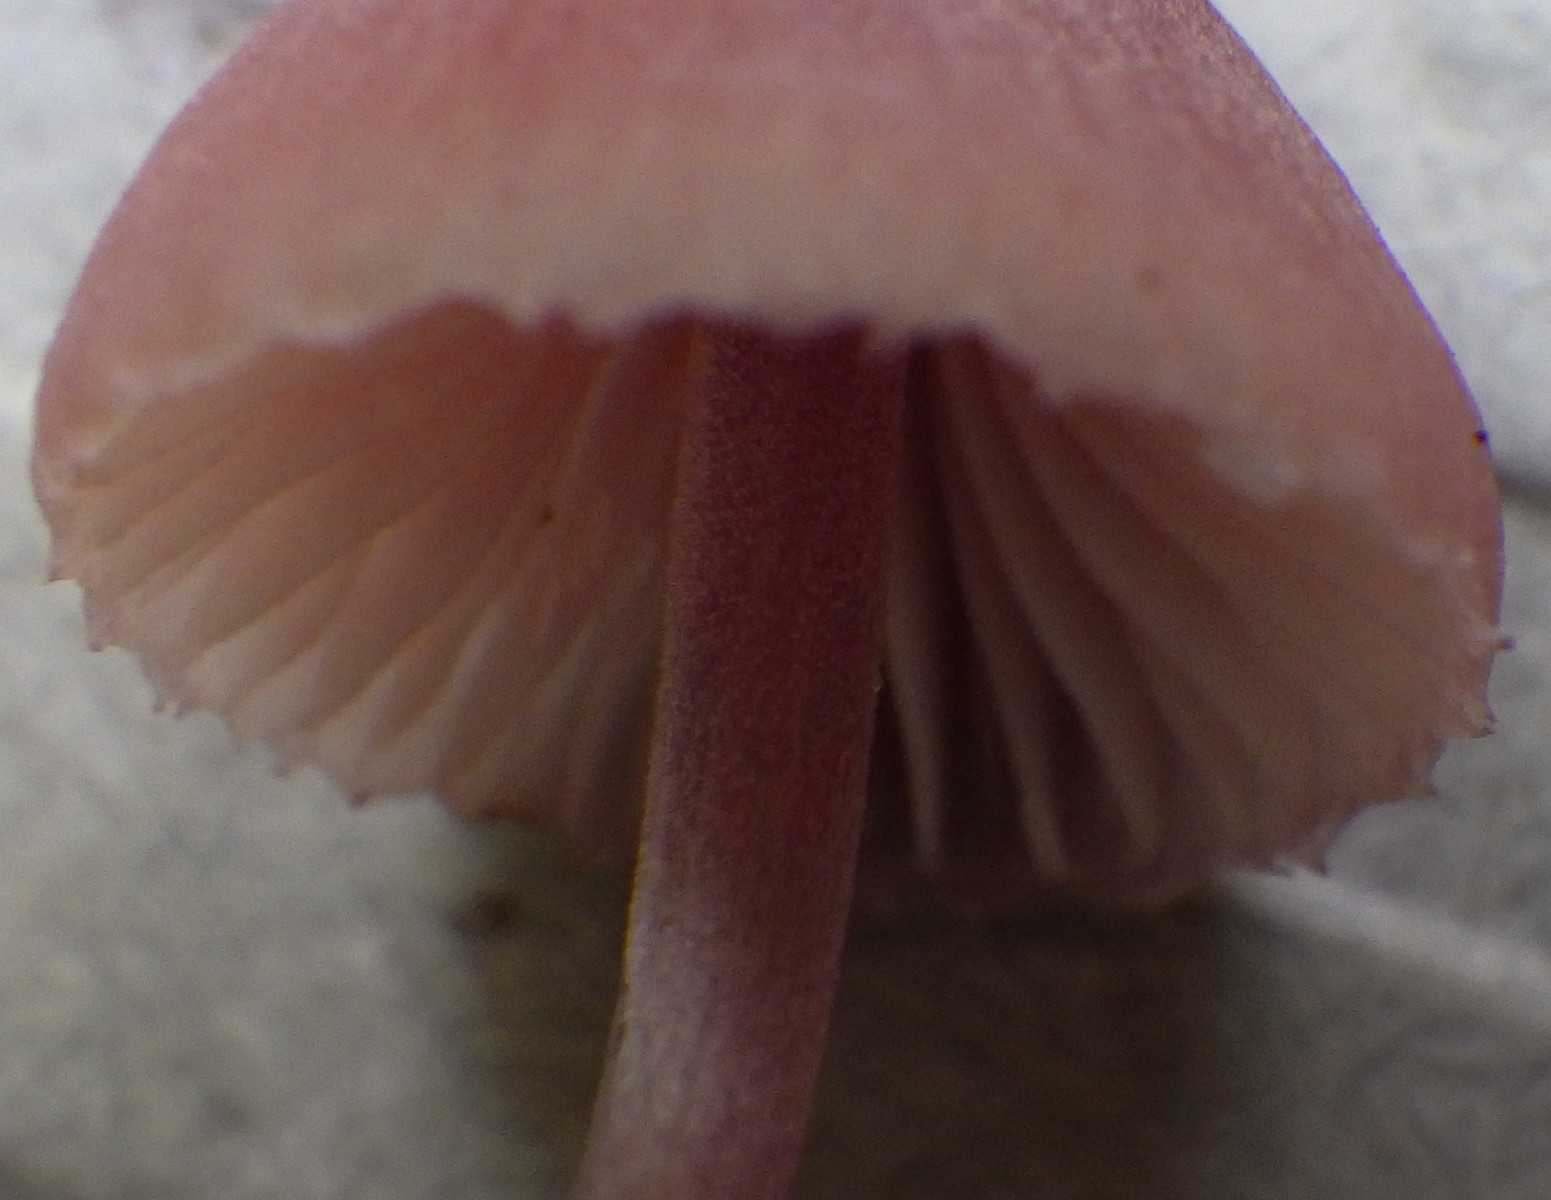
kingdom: Fungi
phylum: Basidiomycota
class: Agaricomycetes
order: Agaricales
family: Mycenaceae
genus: Mycena
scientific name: Mycena haematopus
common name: blødende huesvamp
